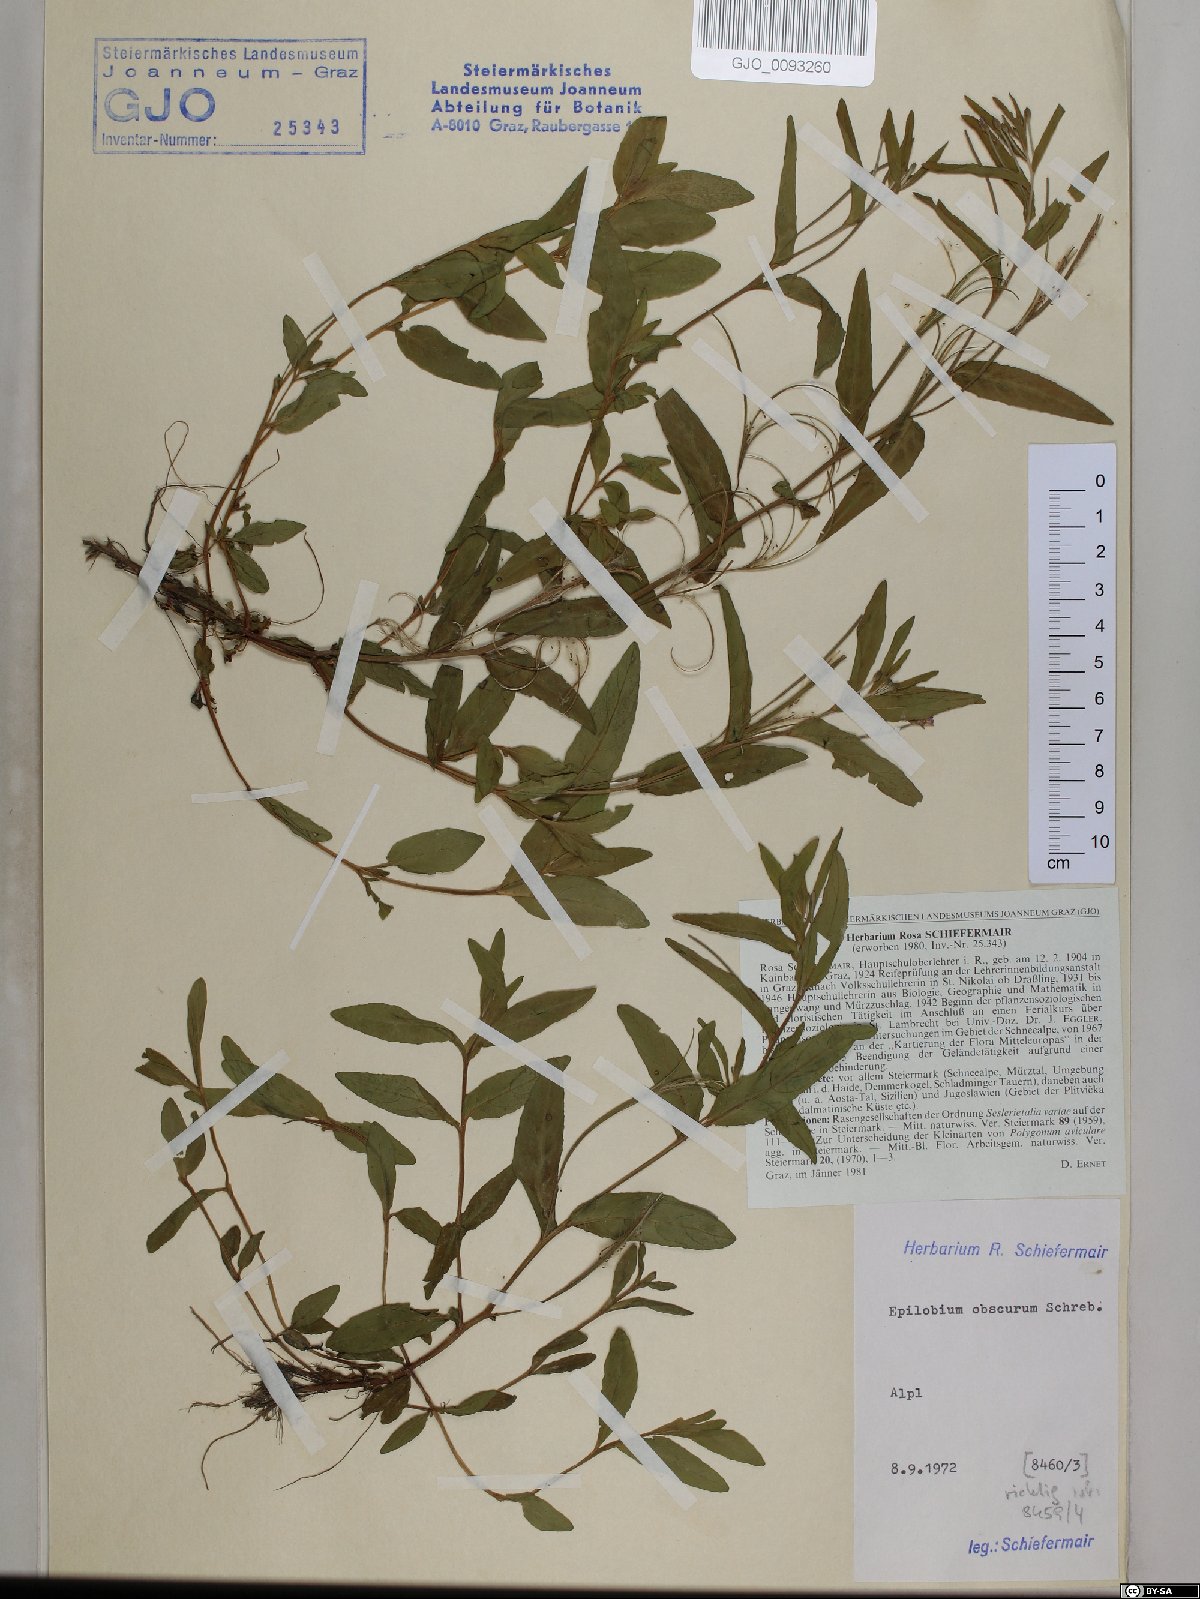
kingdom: Plantae
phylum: Tracheophyta
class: Magnoliopsida
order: Myrtales
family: Onagraceae
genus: Epilobium
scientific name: Epilobium obscurum
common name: Short-fruited willowherb
